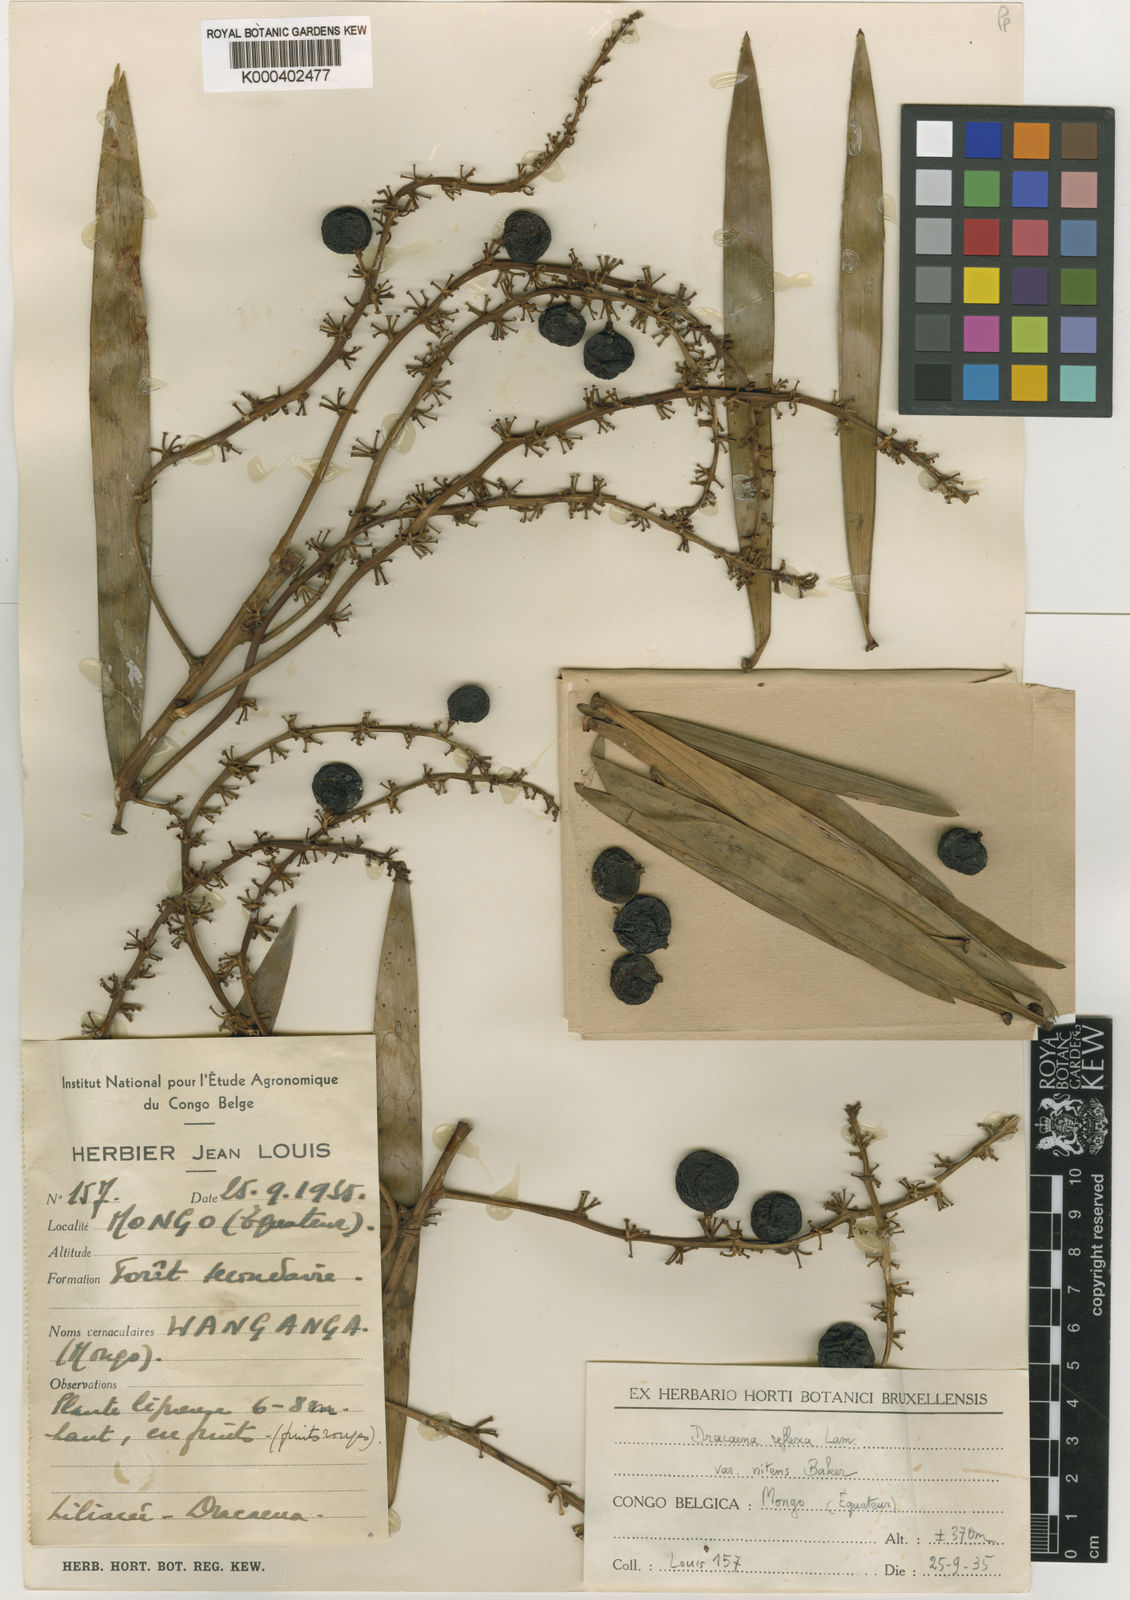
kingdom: Plantae
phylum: Tracheophyta
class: Liliopsida
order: Asparagales
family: Asparagaceae
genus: Dracaena
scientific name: Dracaena nitens
